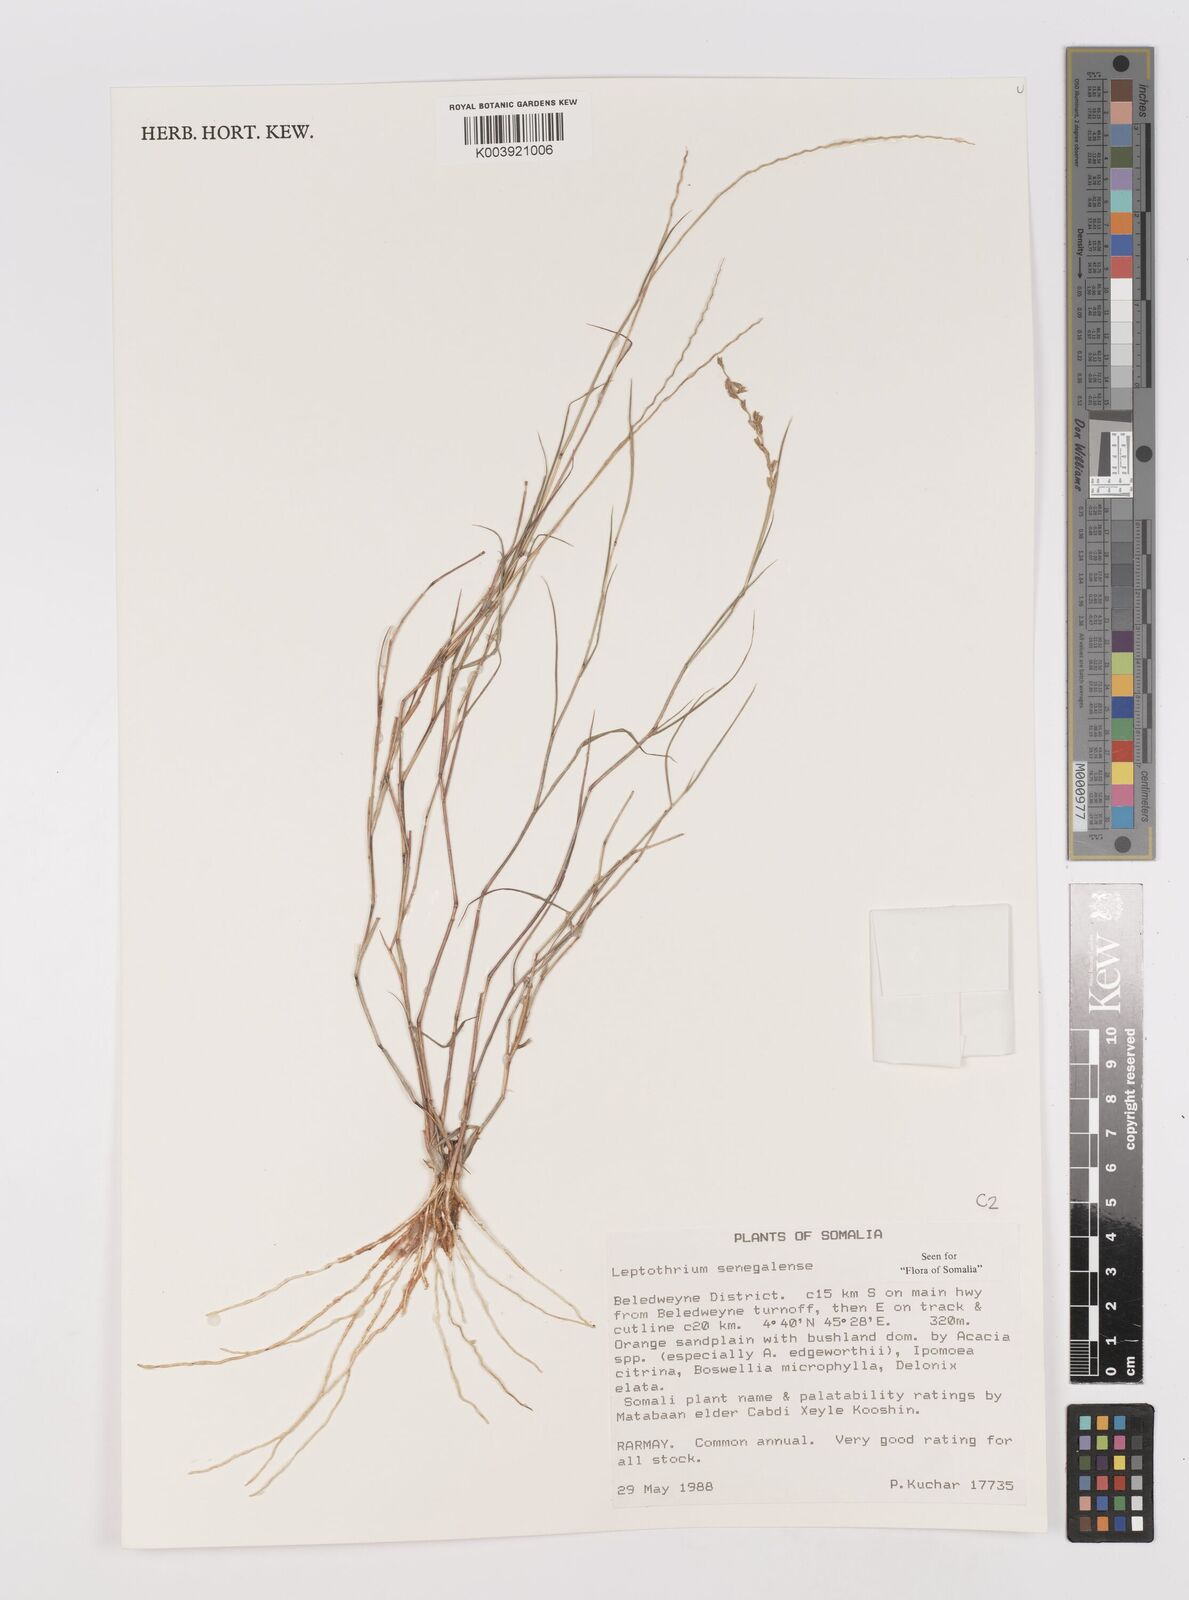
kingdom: Plantae
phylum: Tracheophyta
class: Liliopsida
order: Poales
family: Poaceae
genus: Leptothrium
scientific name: Leptothrium senegalense
